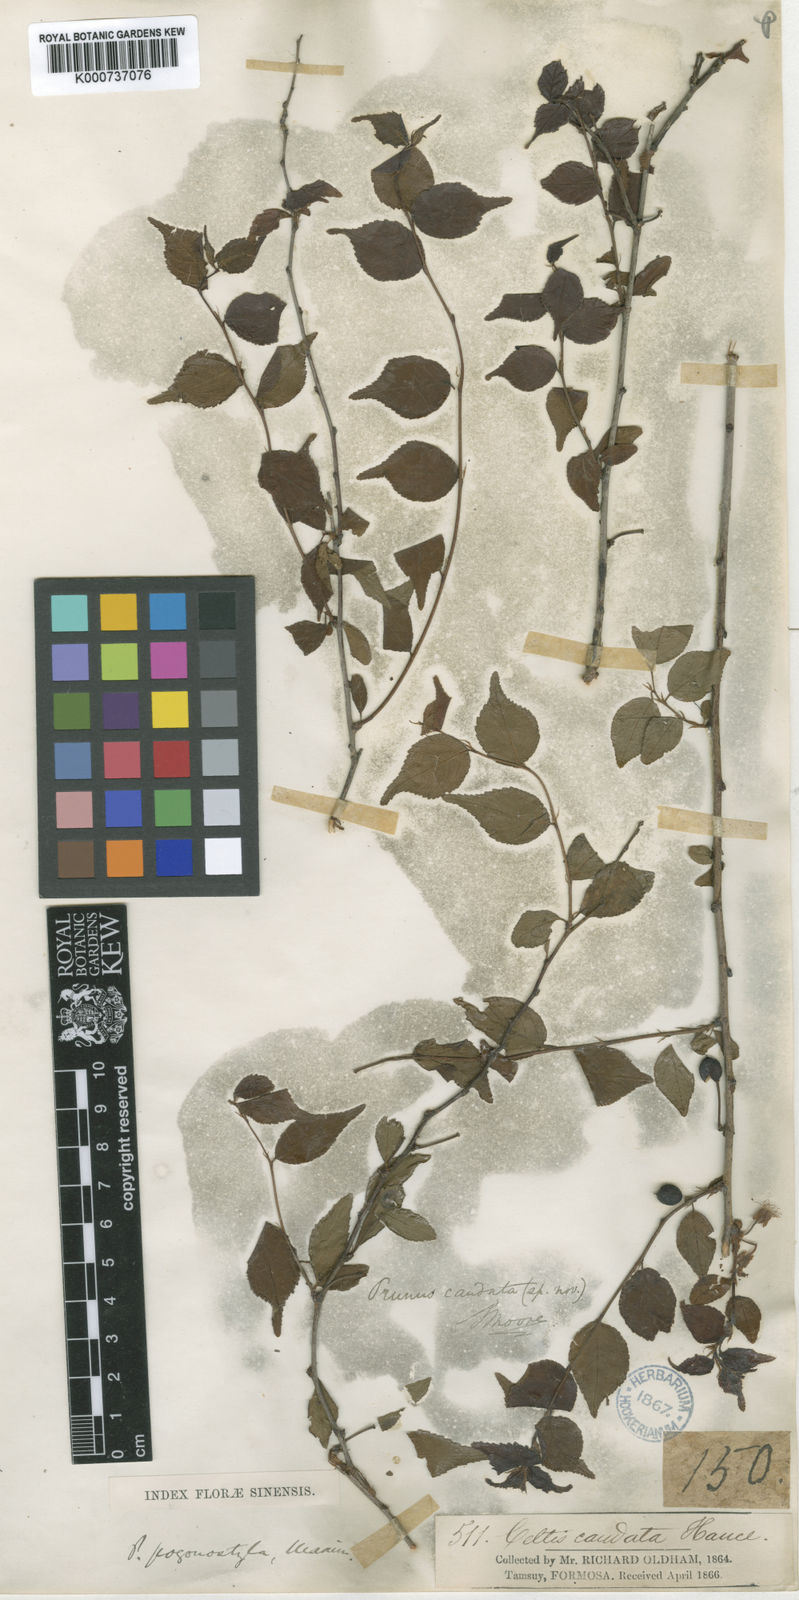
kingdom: Plantae
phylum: Tracheophyta
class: Magnoliopsida
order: Rosales
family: Rosaceae
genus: Prunus
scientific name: Prunus pogonostyla
